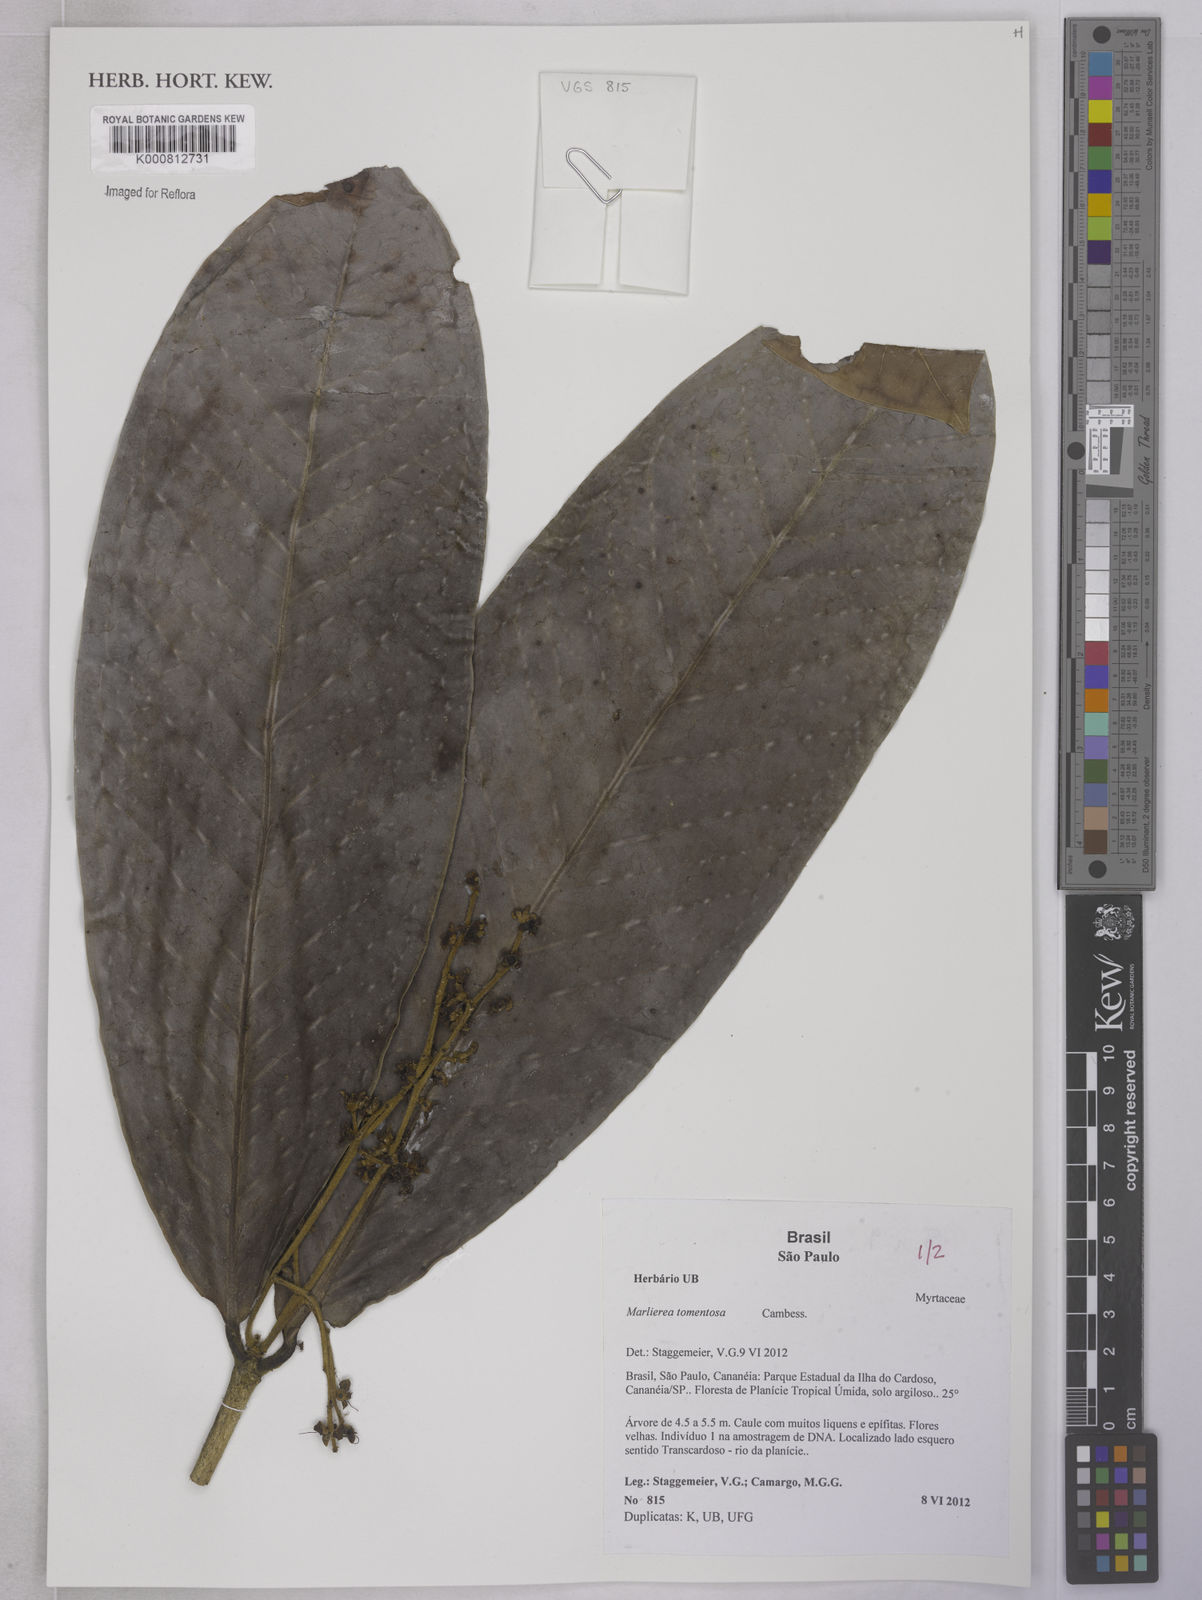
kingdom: Plantae
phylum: Tracheophyta
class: Magnoliopsida
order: Myrtales
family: Myrtaceae
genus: Myrcia
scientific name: Myrcia neotomentosa
